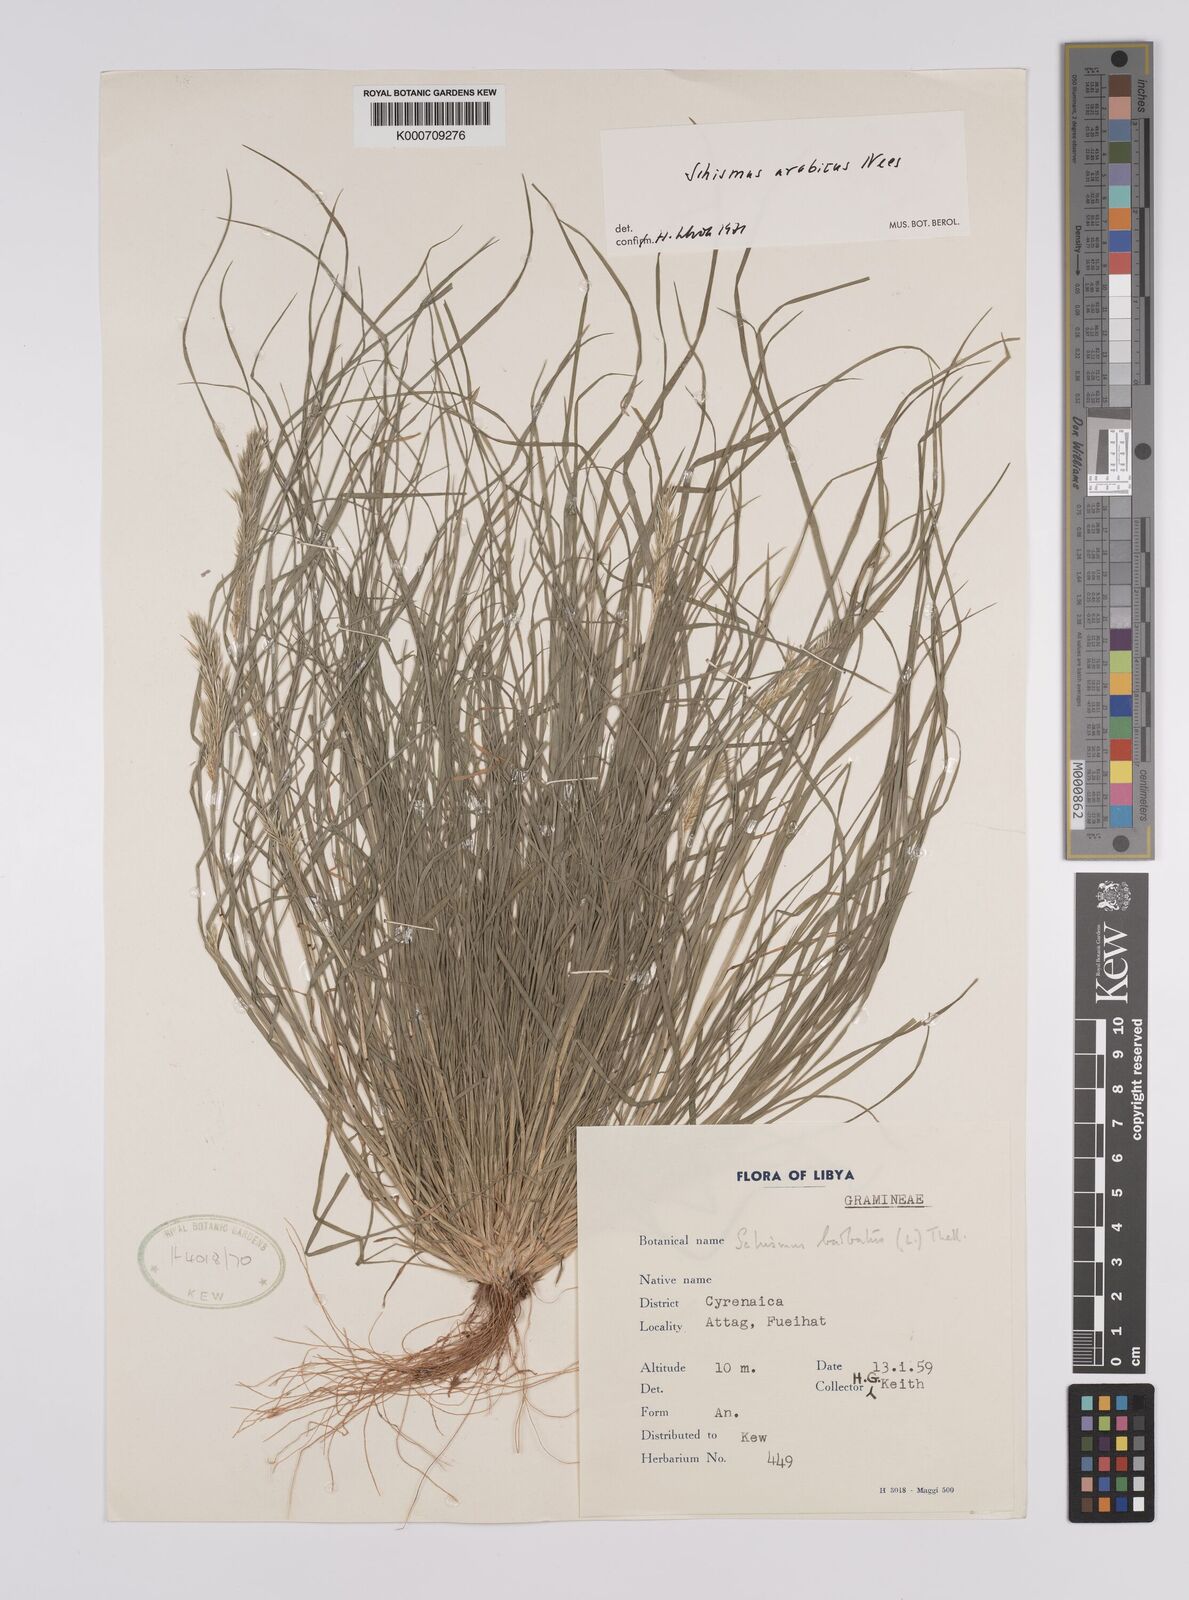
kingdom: Plantae
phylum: Tracheophyta
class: Liliopsida
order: Poales
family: Poaceae
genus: Schismus
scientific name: Schismus arabicus
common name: Arabian schismus
